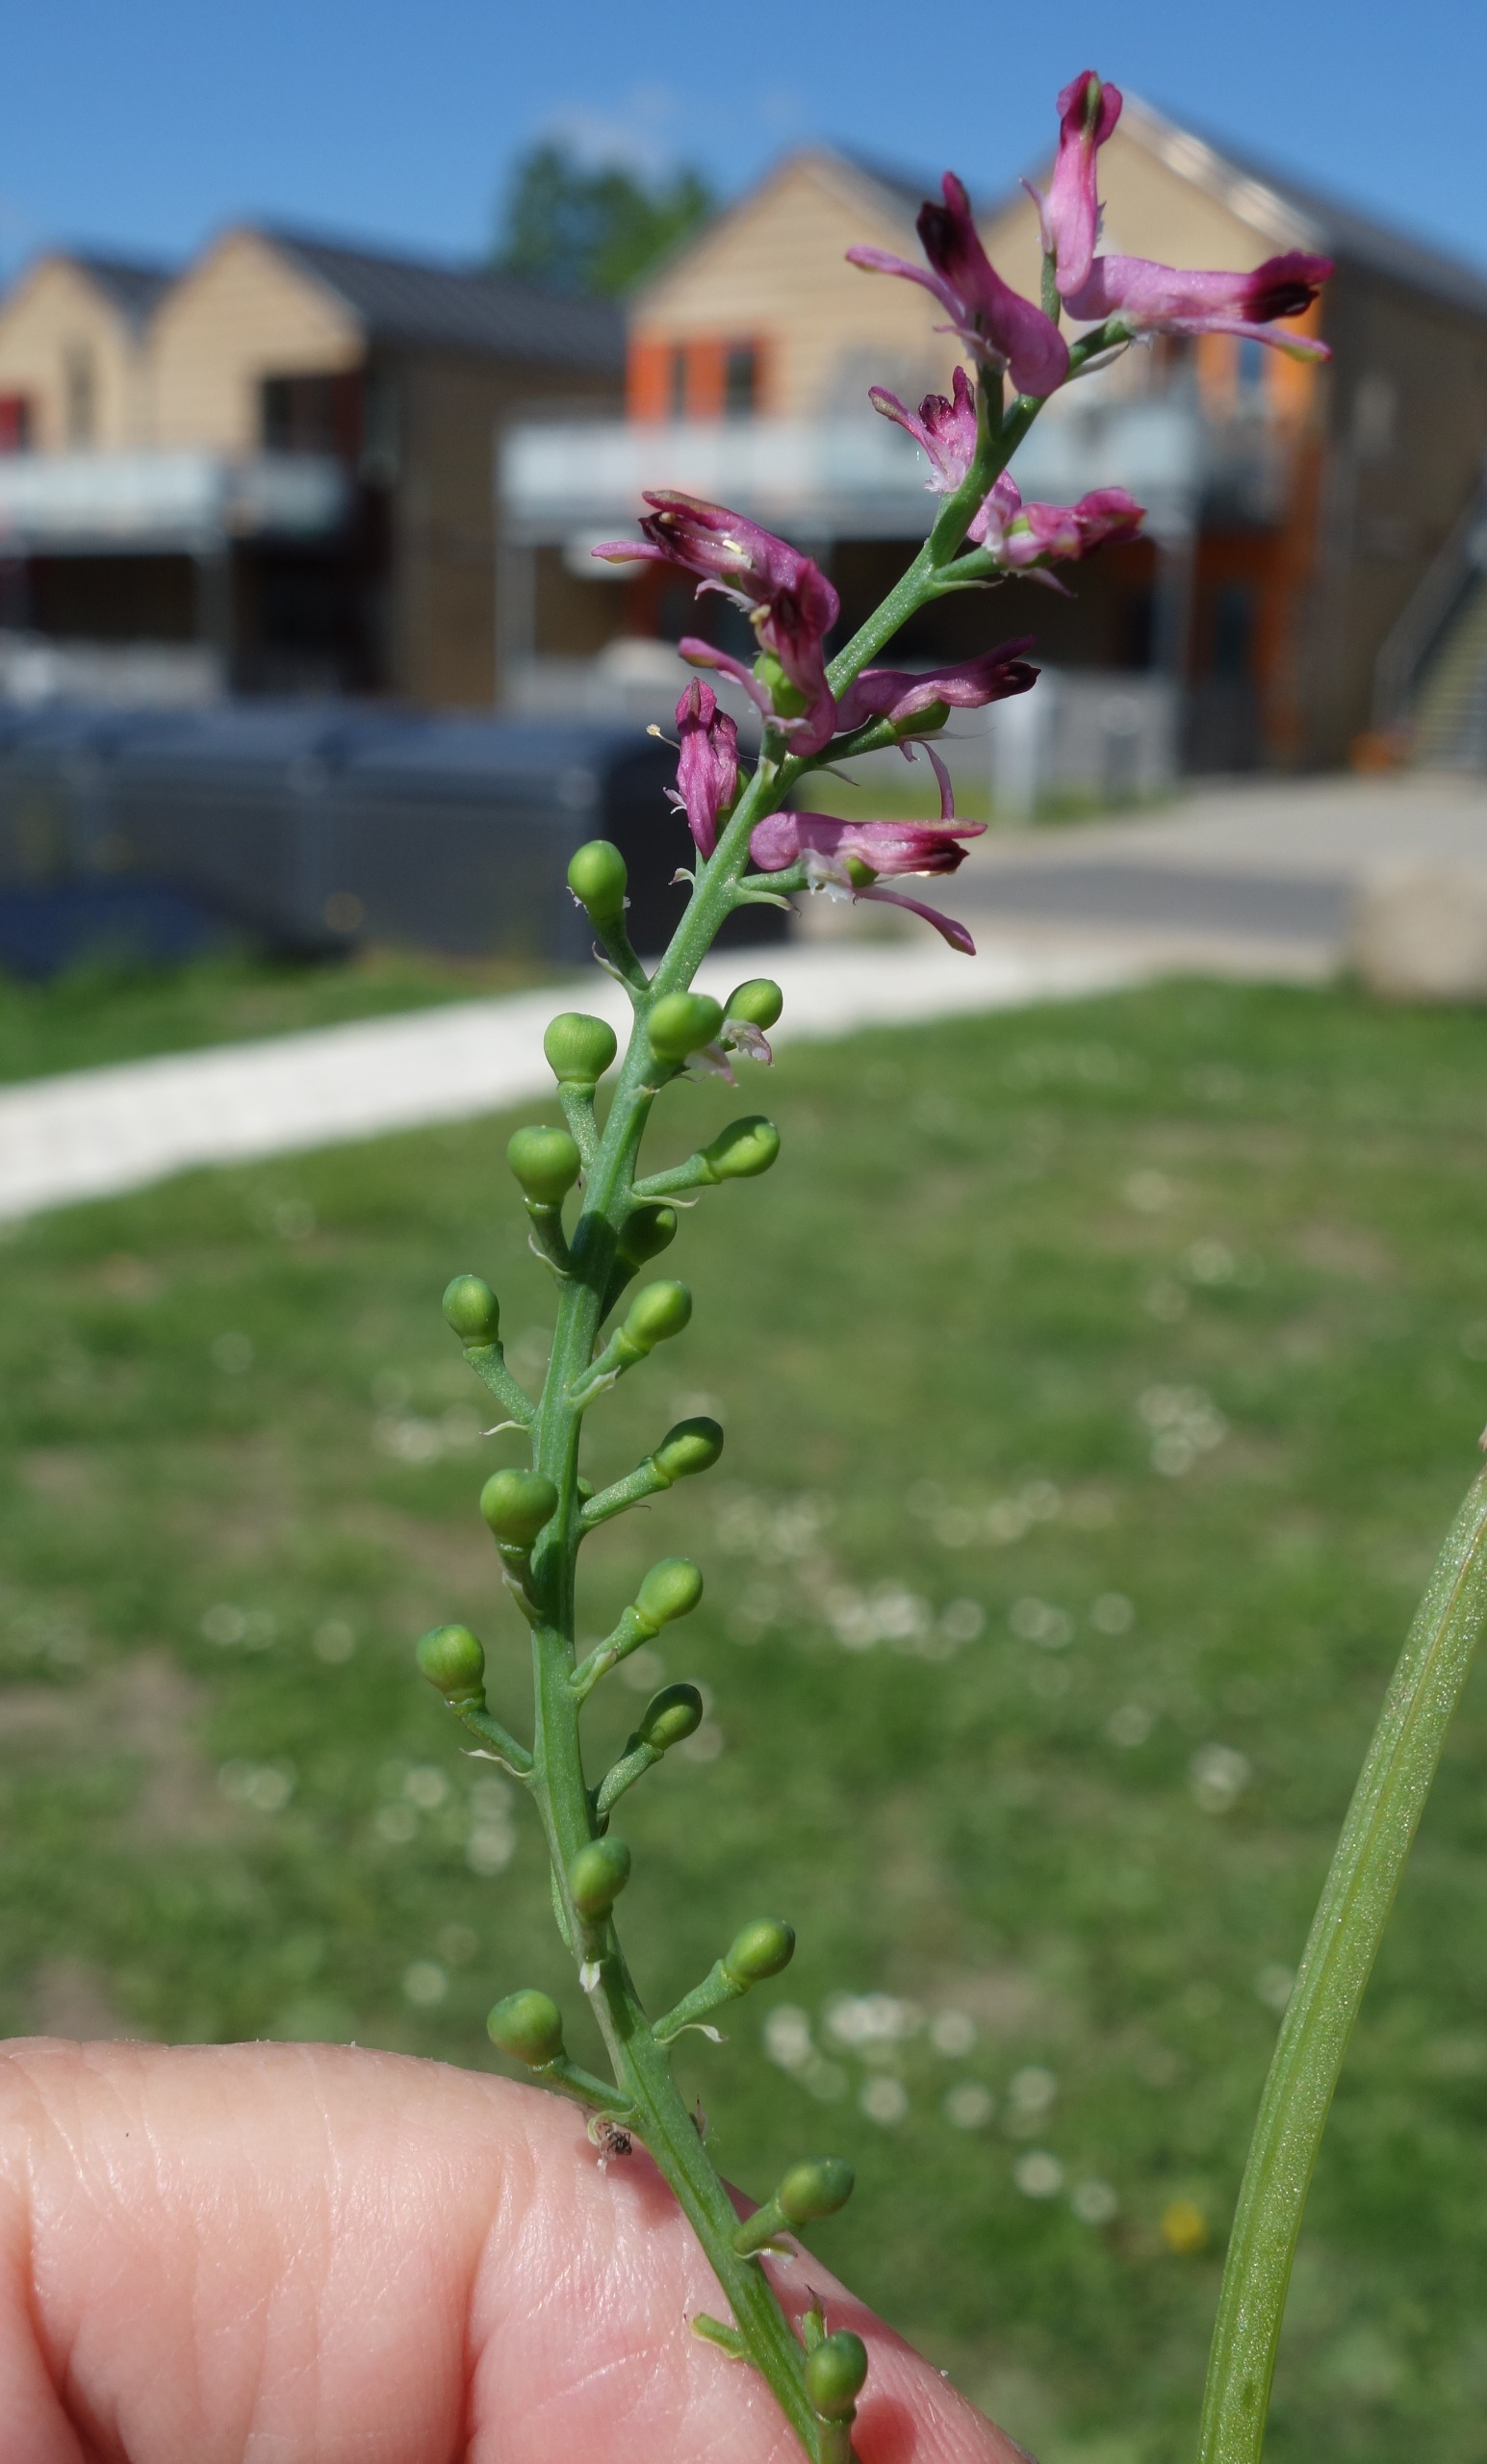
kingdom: Plantae
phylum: Tracheophyta
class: Magnoliopsida
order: Ranunculales
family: Papaveraceae
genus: Fumaria
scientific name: Fumaria officinalis
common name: Læge-jordrøg
